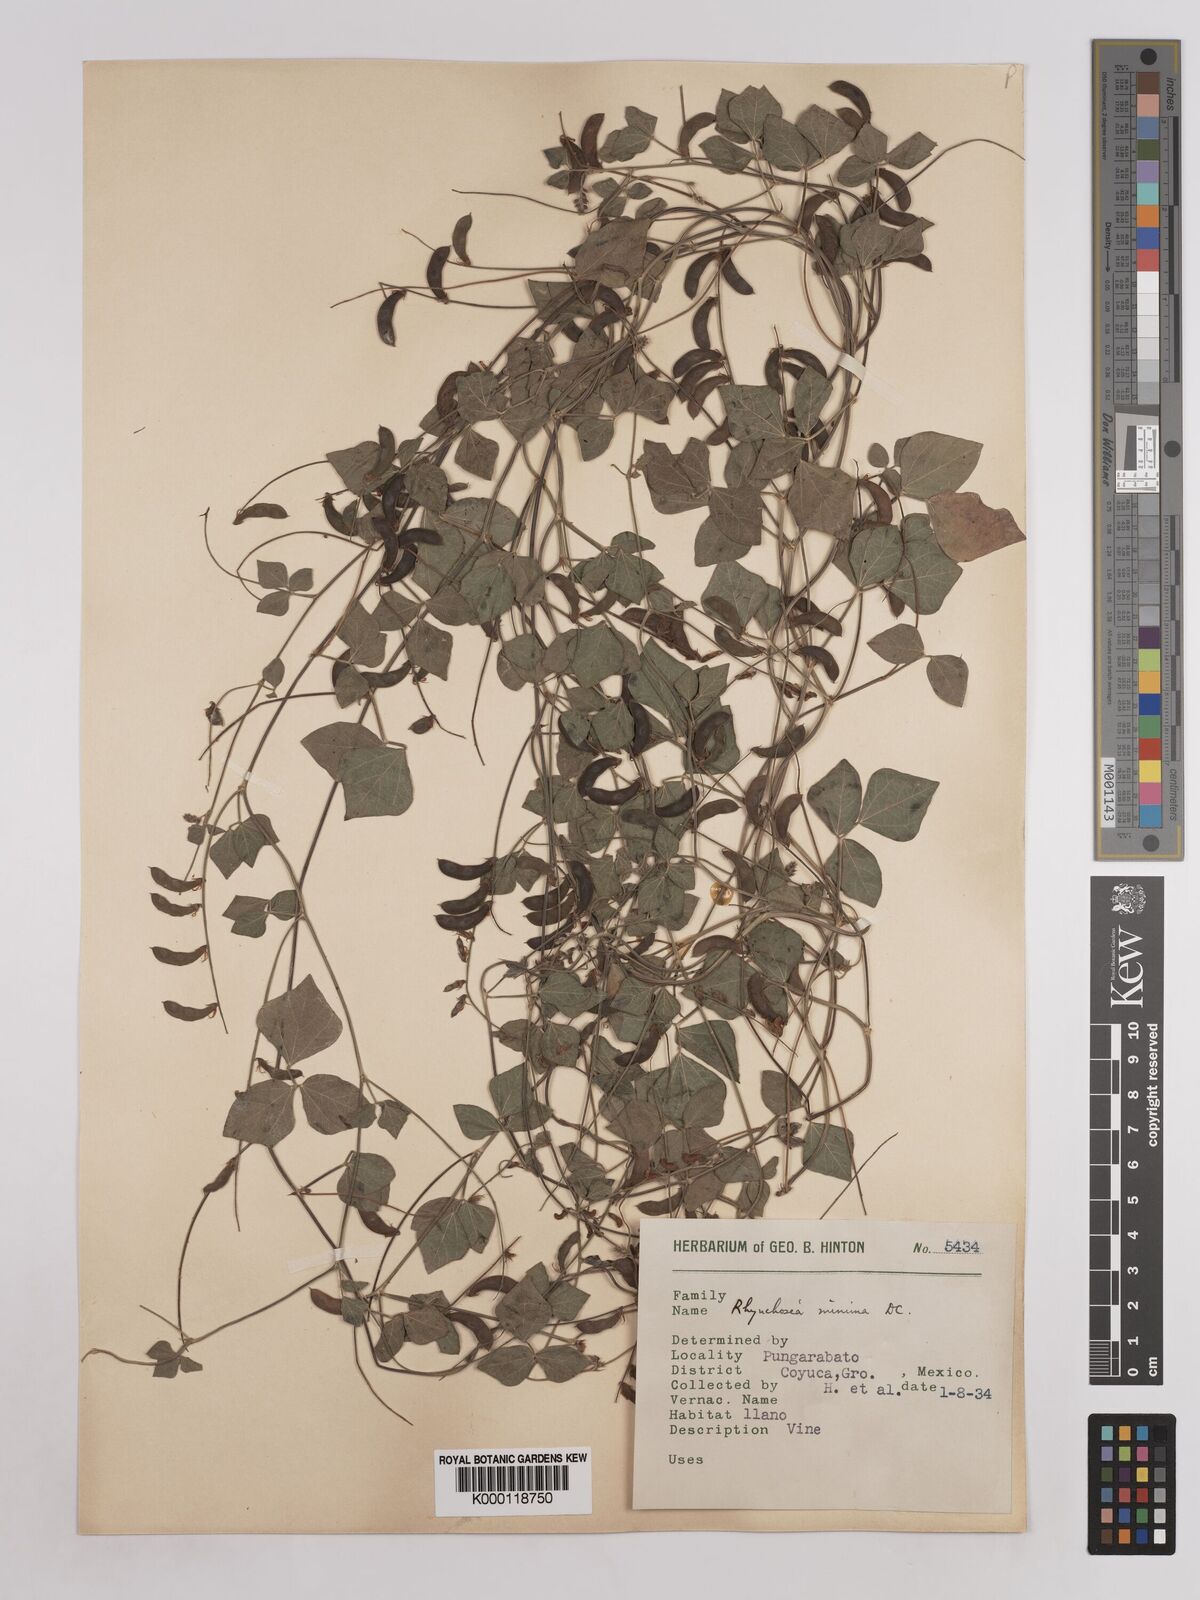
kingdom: Plantae
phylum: Tracheophyta
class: Magnoliopsida
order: Fabales
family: Fabaceae
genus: Rhynchosia
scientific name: Rhynchosia minima
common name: Least snoutbean
